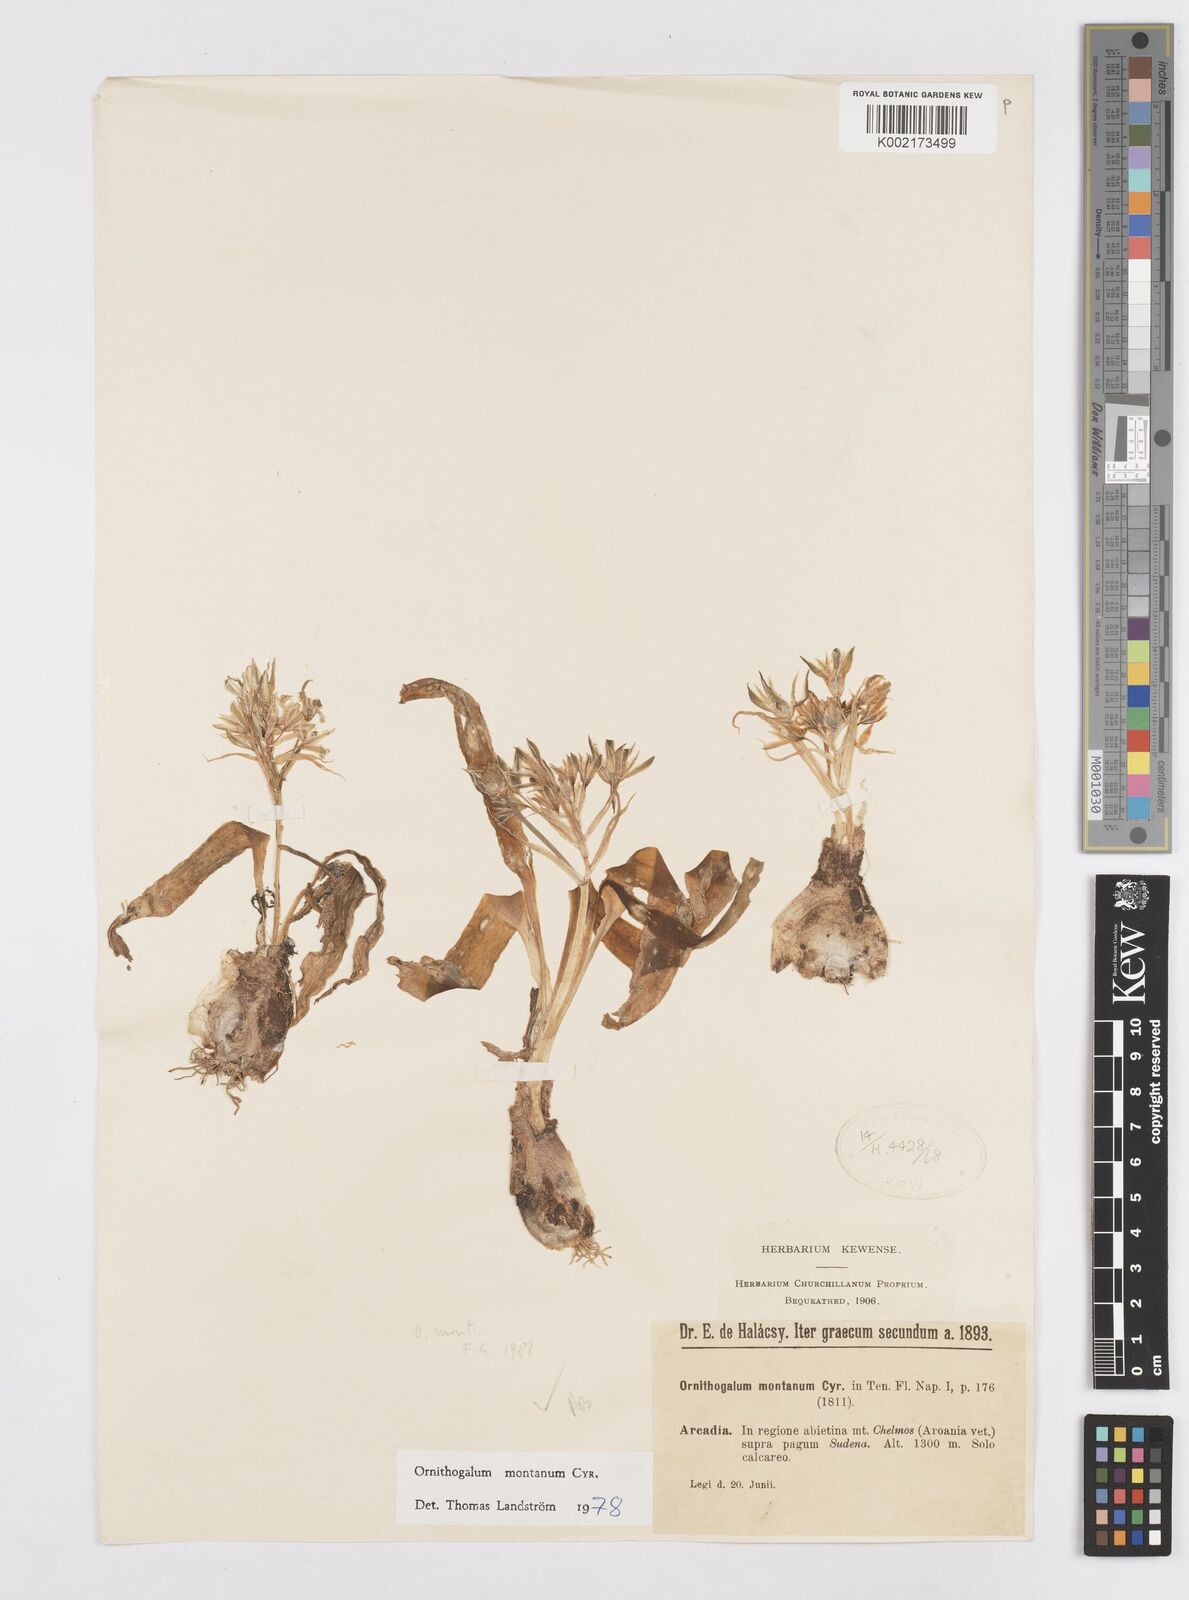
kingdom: Plantae
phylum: Tracheophyta
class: Liliopsida
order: Asparagales
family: Asparagaceae
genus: Ornithogalum
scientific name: Ornithogalum montanum
